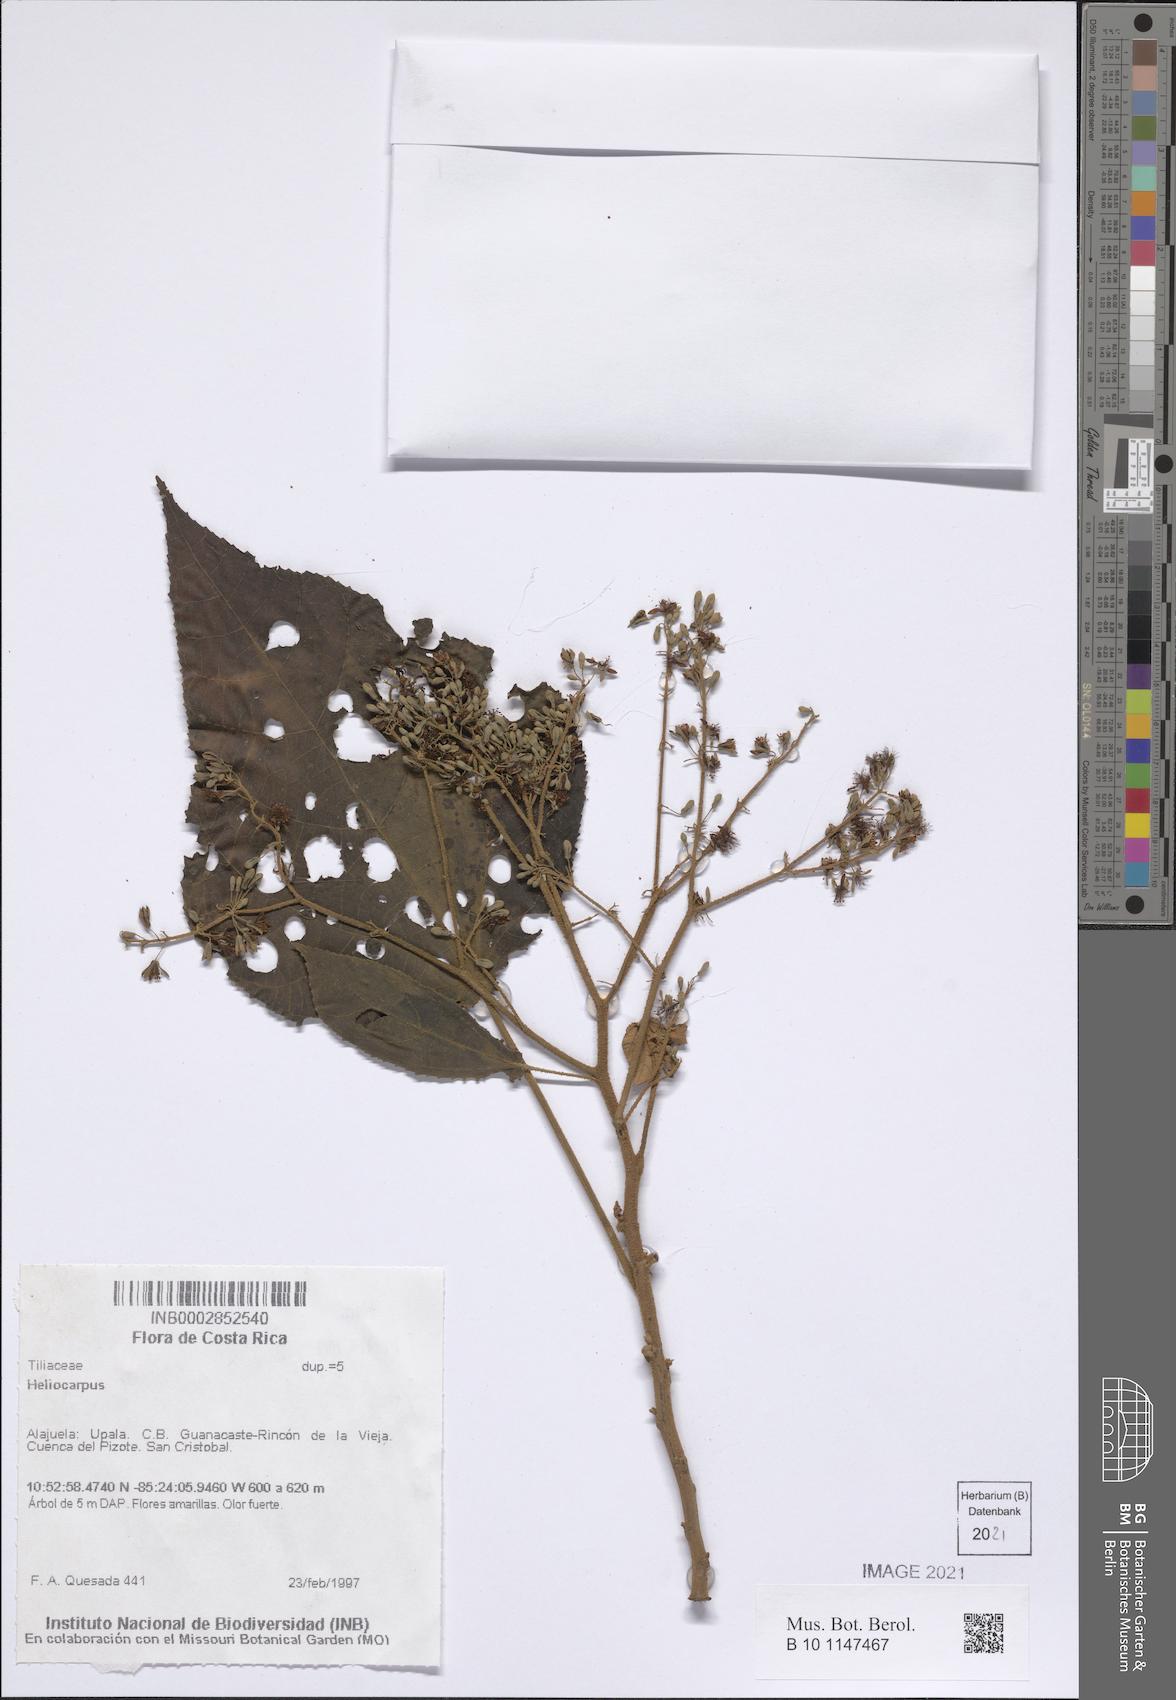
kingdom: Plantae
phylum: Tracheophyta
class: Magnoliopsida
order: Malvales
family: Malvaceae
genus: Heliocarpus
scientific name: Heliocarpus
